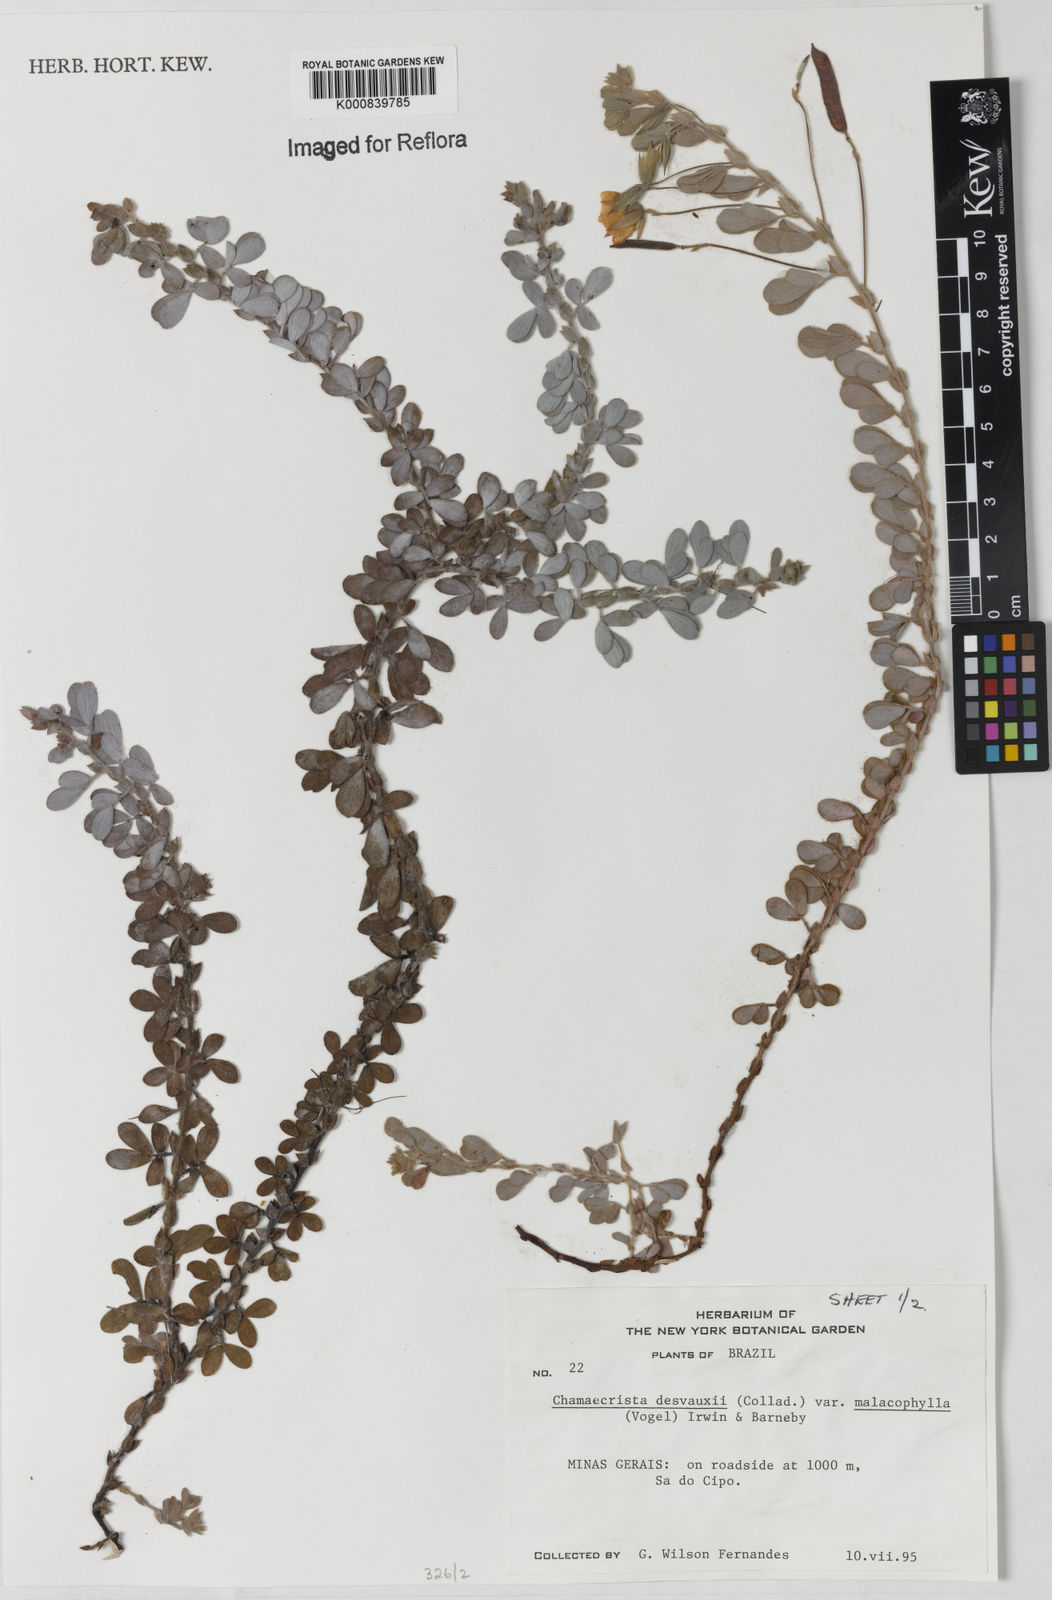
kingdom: Plantae
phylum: Tracheophyta
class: Magnoliopsida
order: Fabales
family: Fabaceae
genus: Chamaecrista
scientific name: Chamaecrista desvauxii
